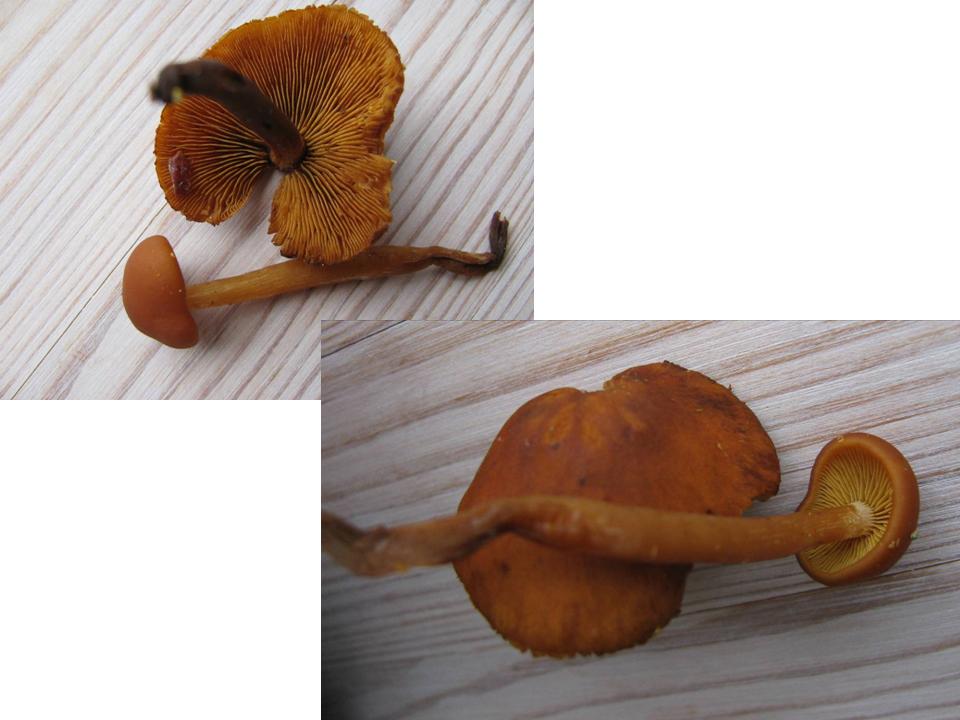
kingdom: Fungi
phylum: Basidiomycota
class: Agaricomycetes
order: Agaricales
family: Hymenogastraceae
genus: Gymnopilus
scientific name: Gymnopilus sapineus
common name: filtet flammehat
